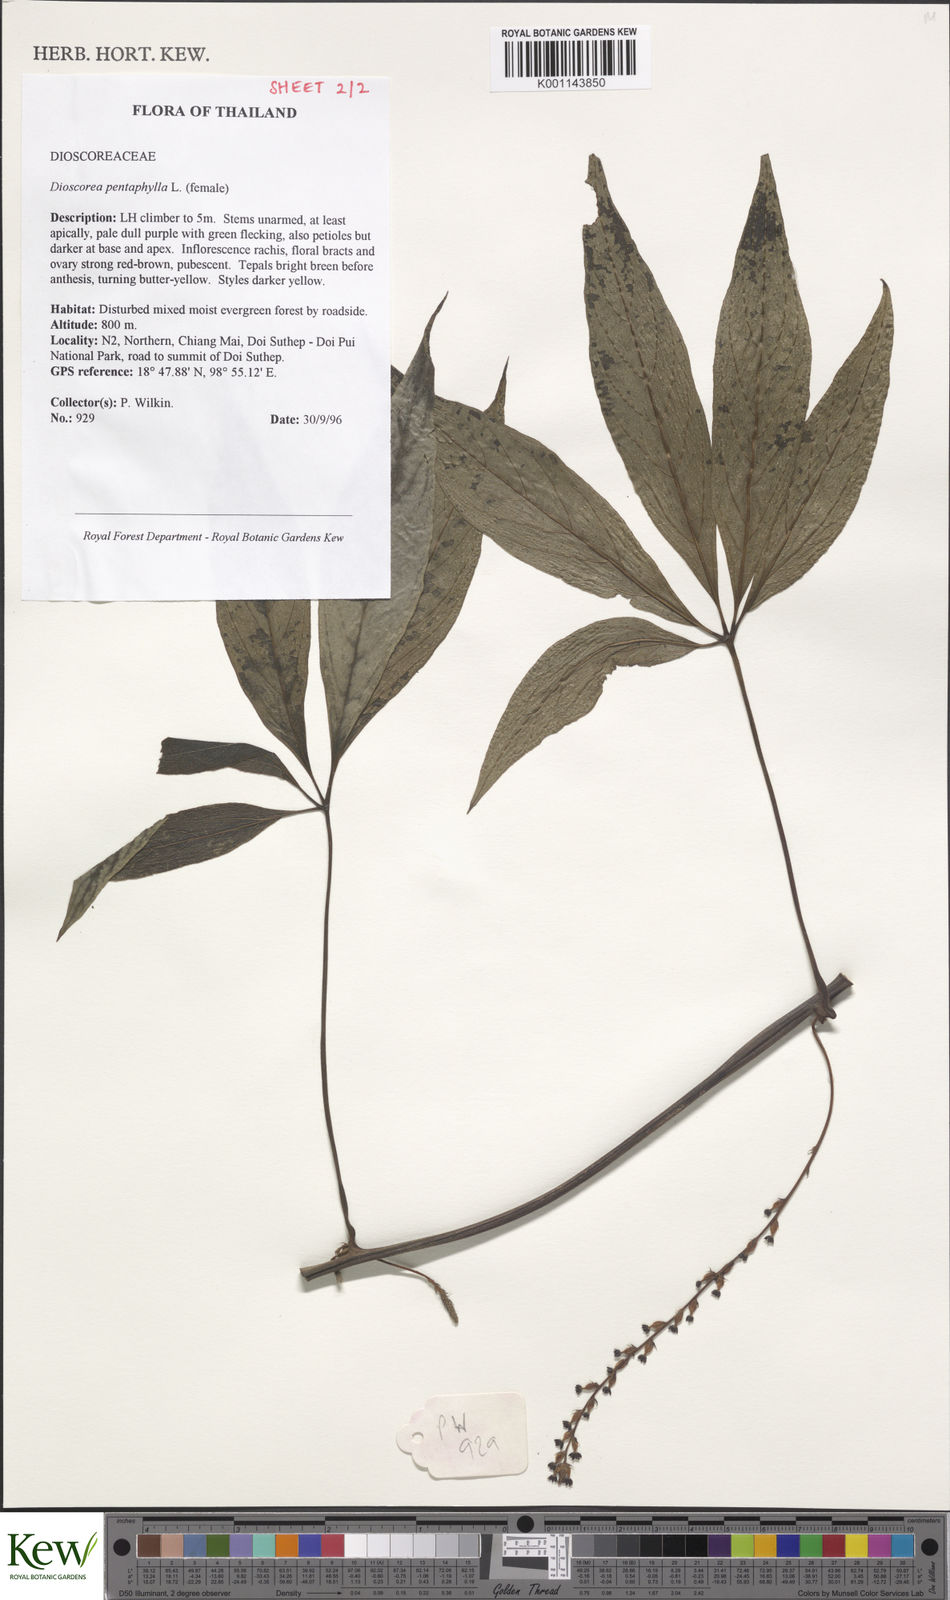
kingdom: Plantae
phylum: Tracheophyta
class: Liliopsida
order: Dioscoreales
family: Dioscoreaceae
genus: Dioscorea
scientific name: Dioscorea pentaphylla
